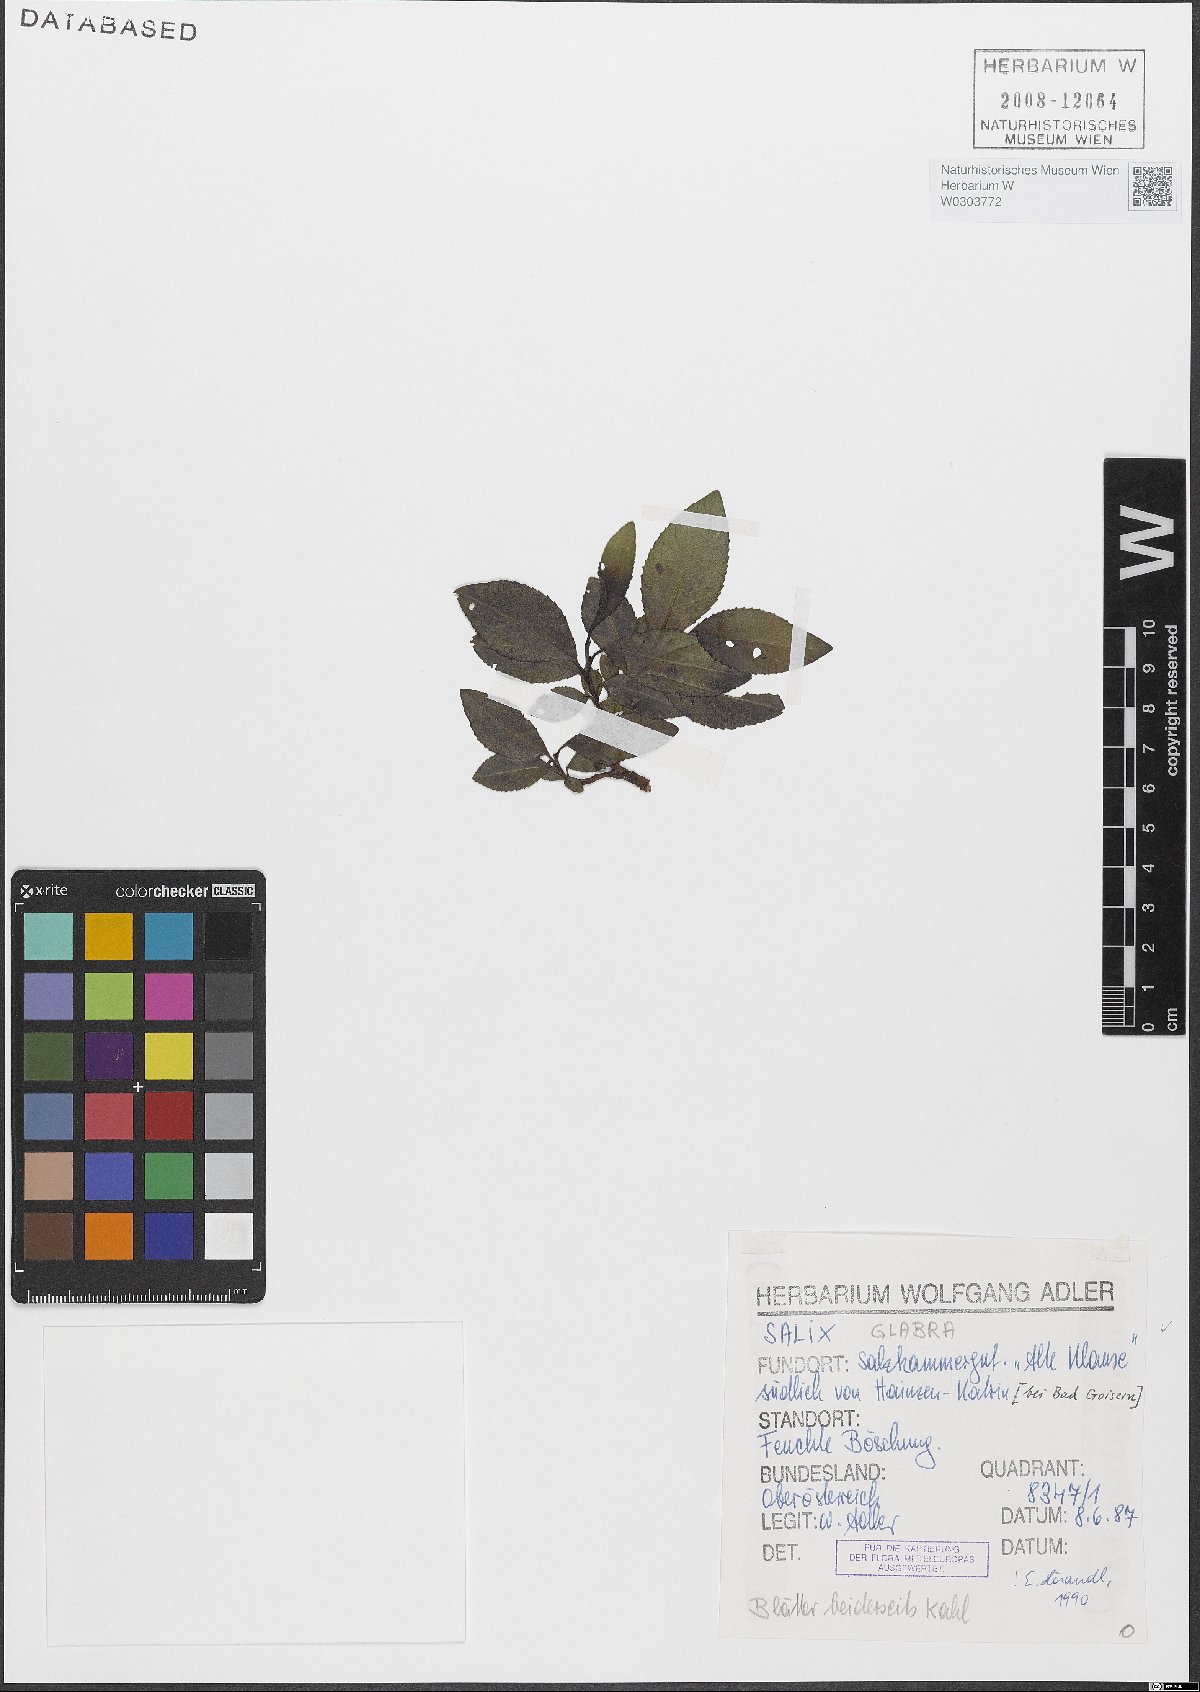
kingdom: Plantae
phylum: Tracheophyta
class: Magnoliopsida
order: Malpighiales
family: Salicaceae
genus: Salix
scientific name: Salix glabra
